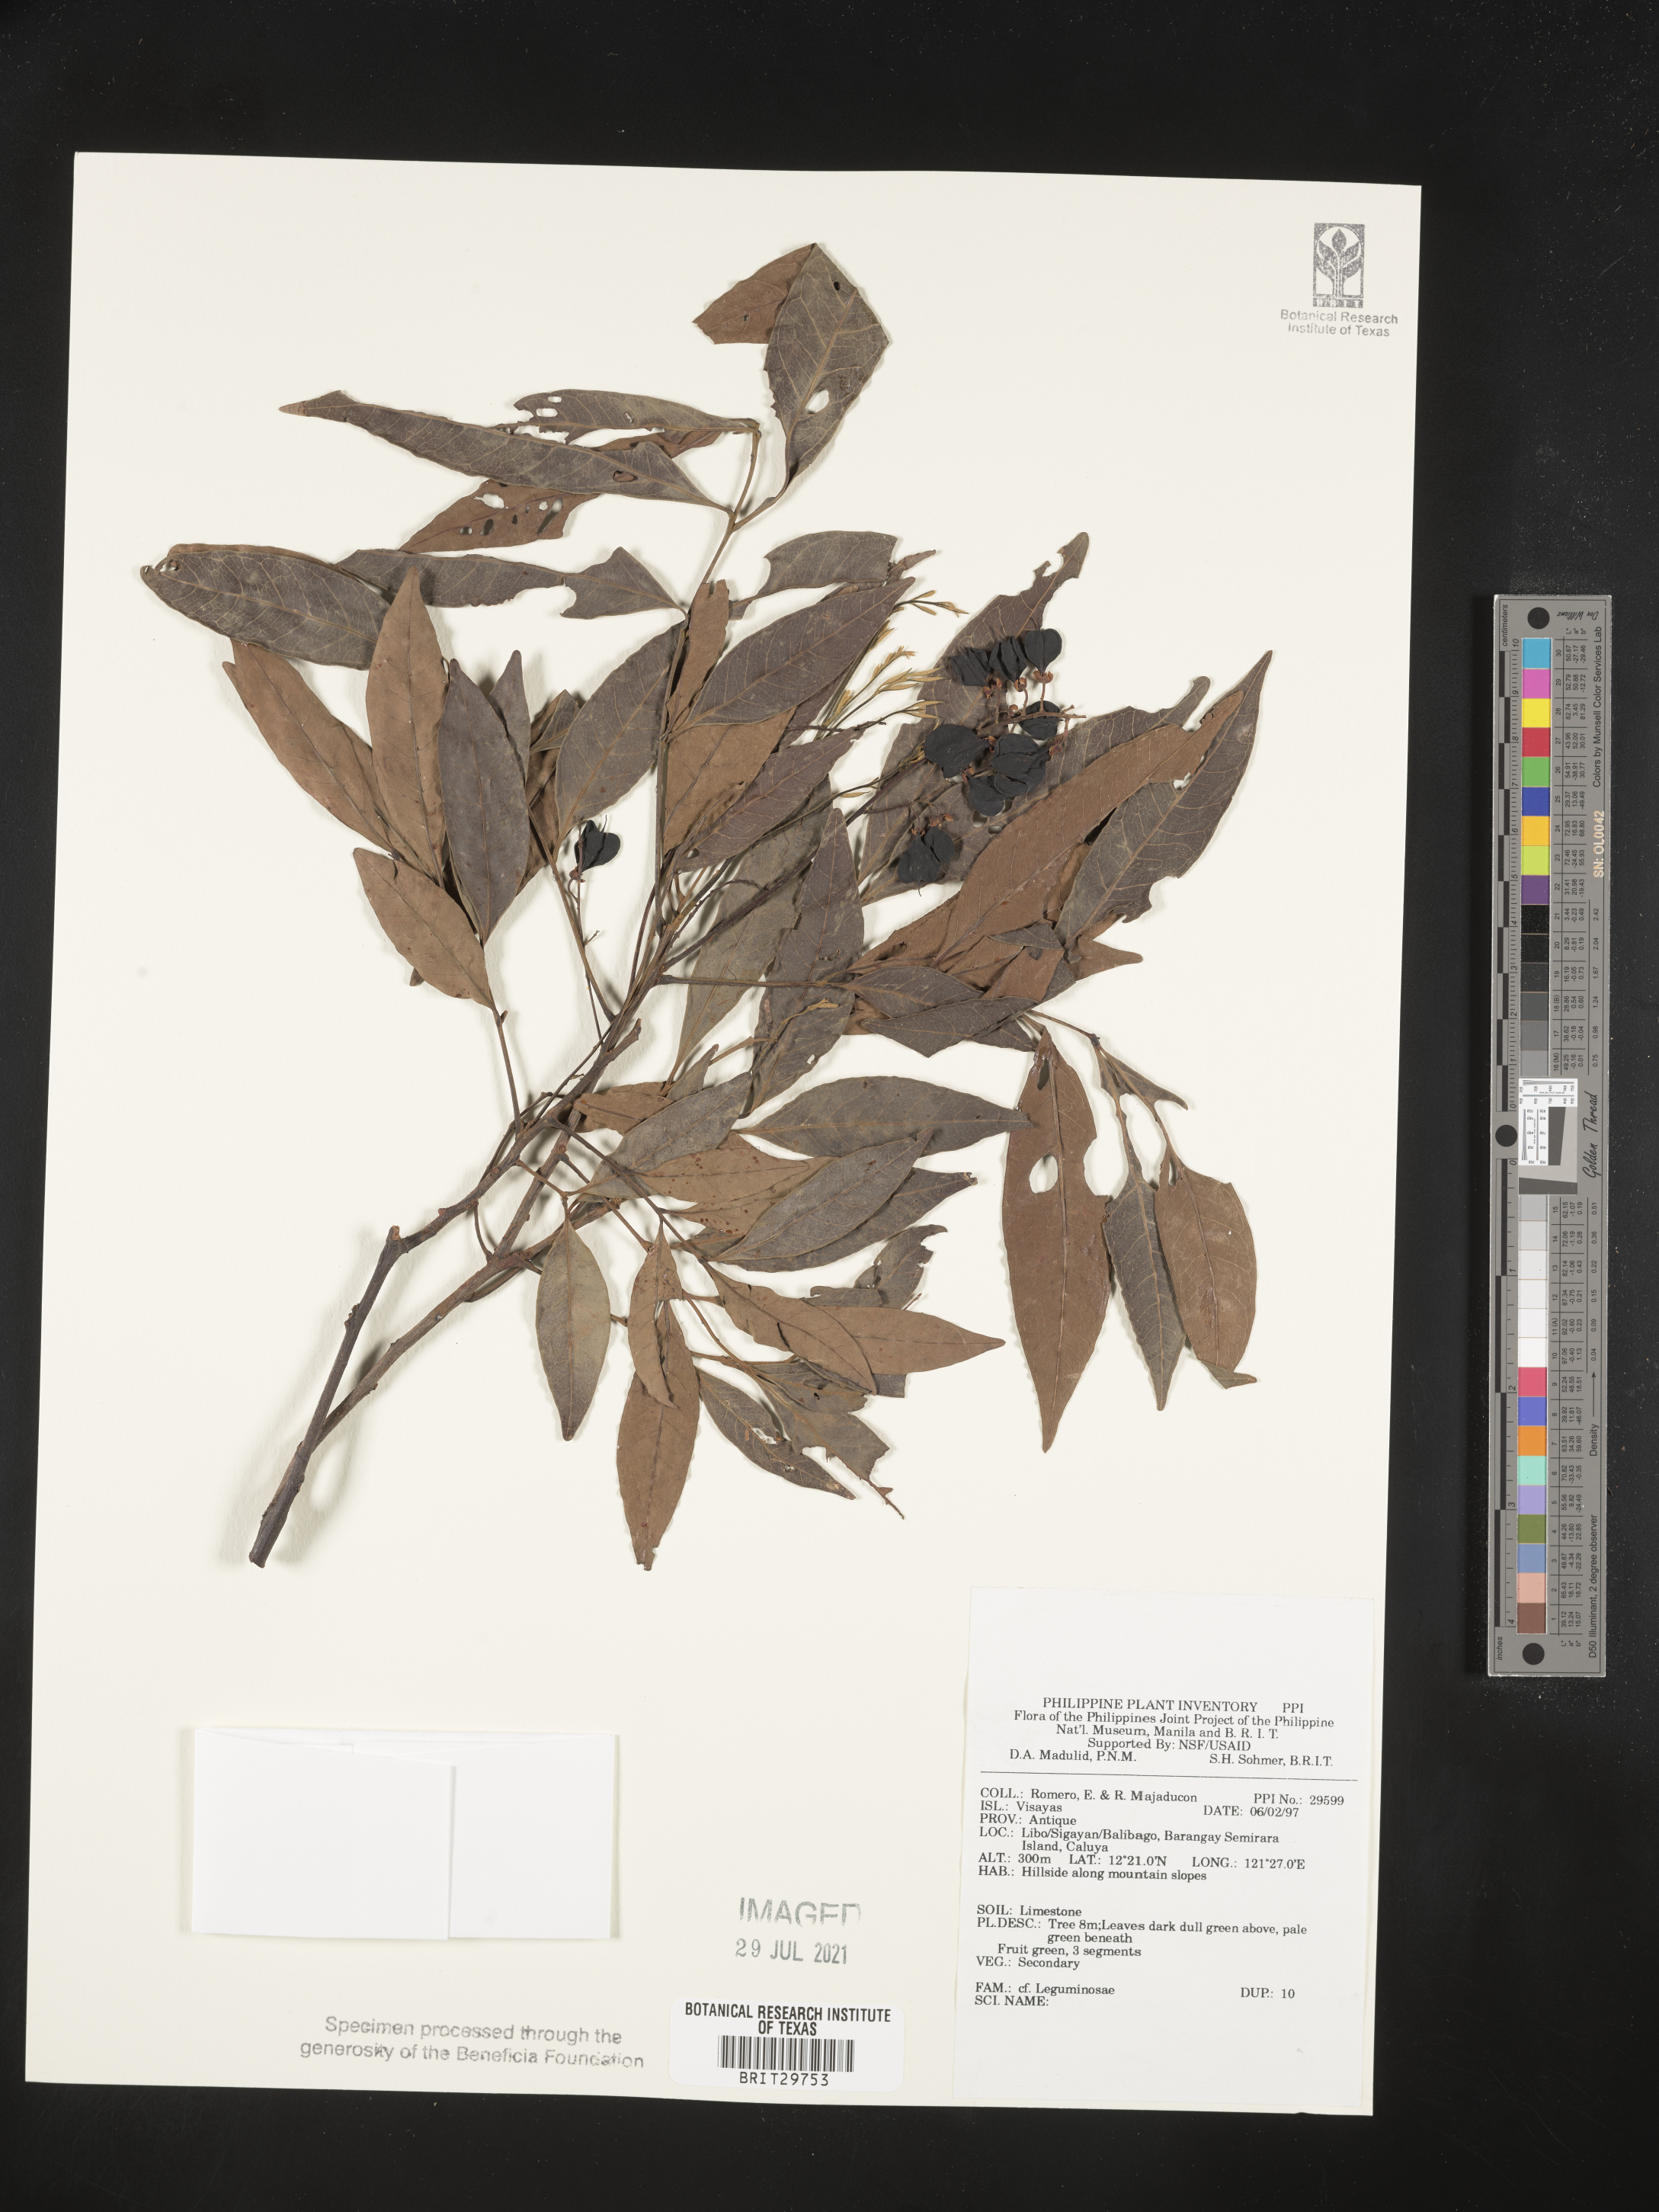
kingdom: Plantae
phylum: Tracheophyta
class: Magnoliopsida
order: Fabales
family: Fabaceae
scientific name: Fabaceae
